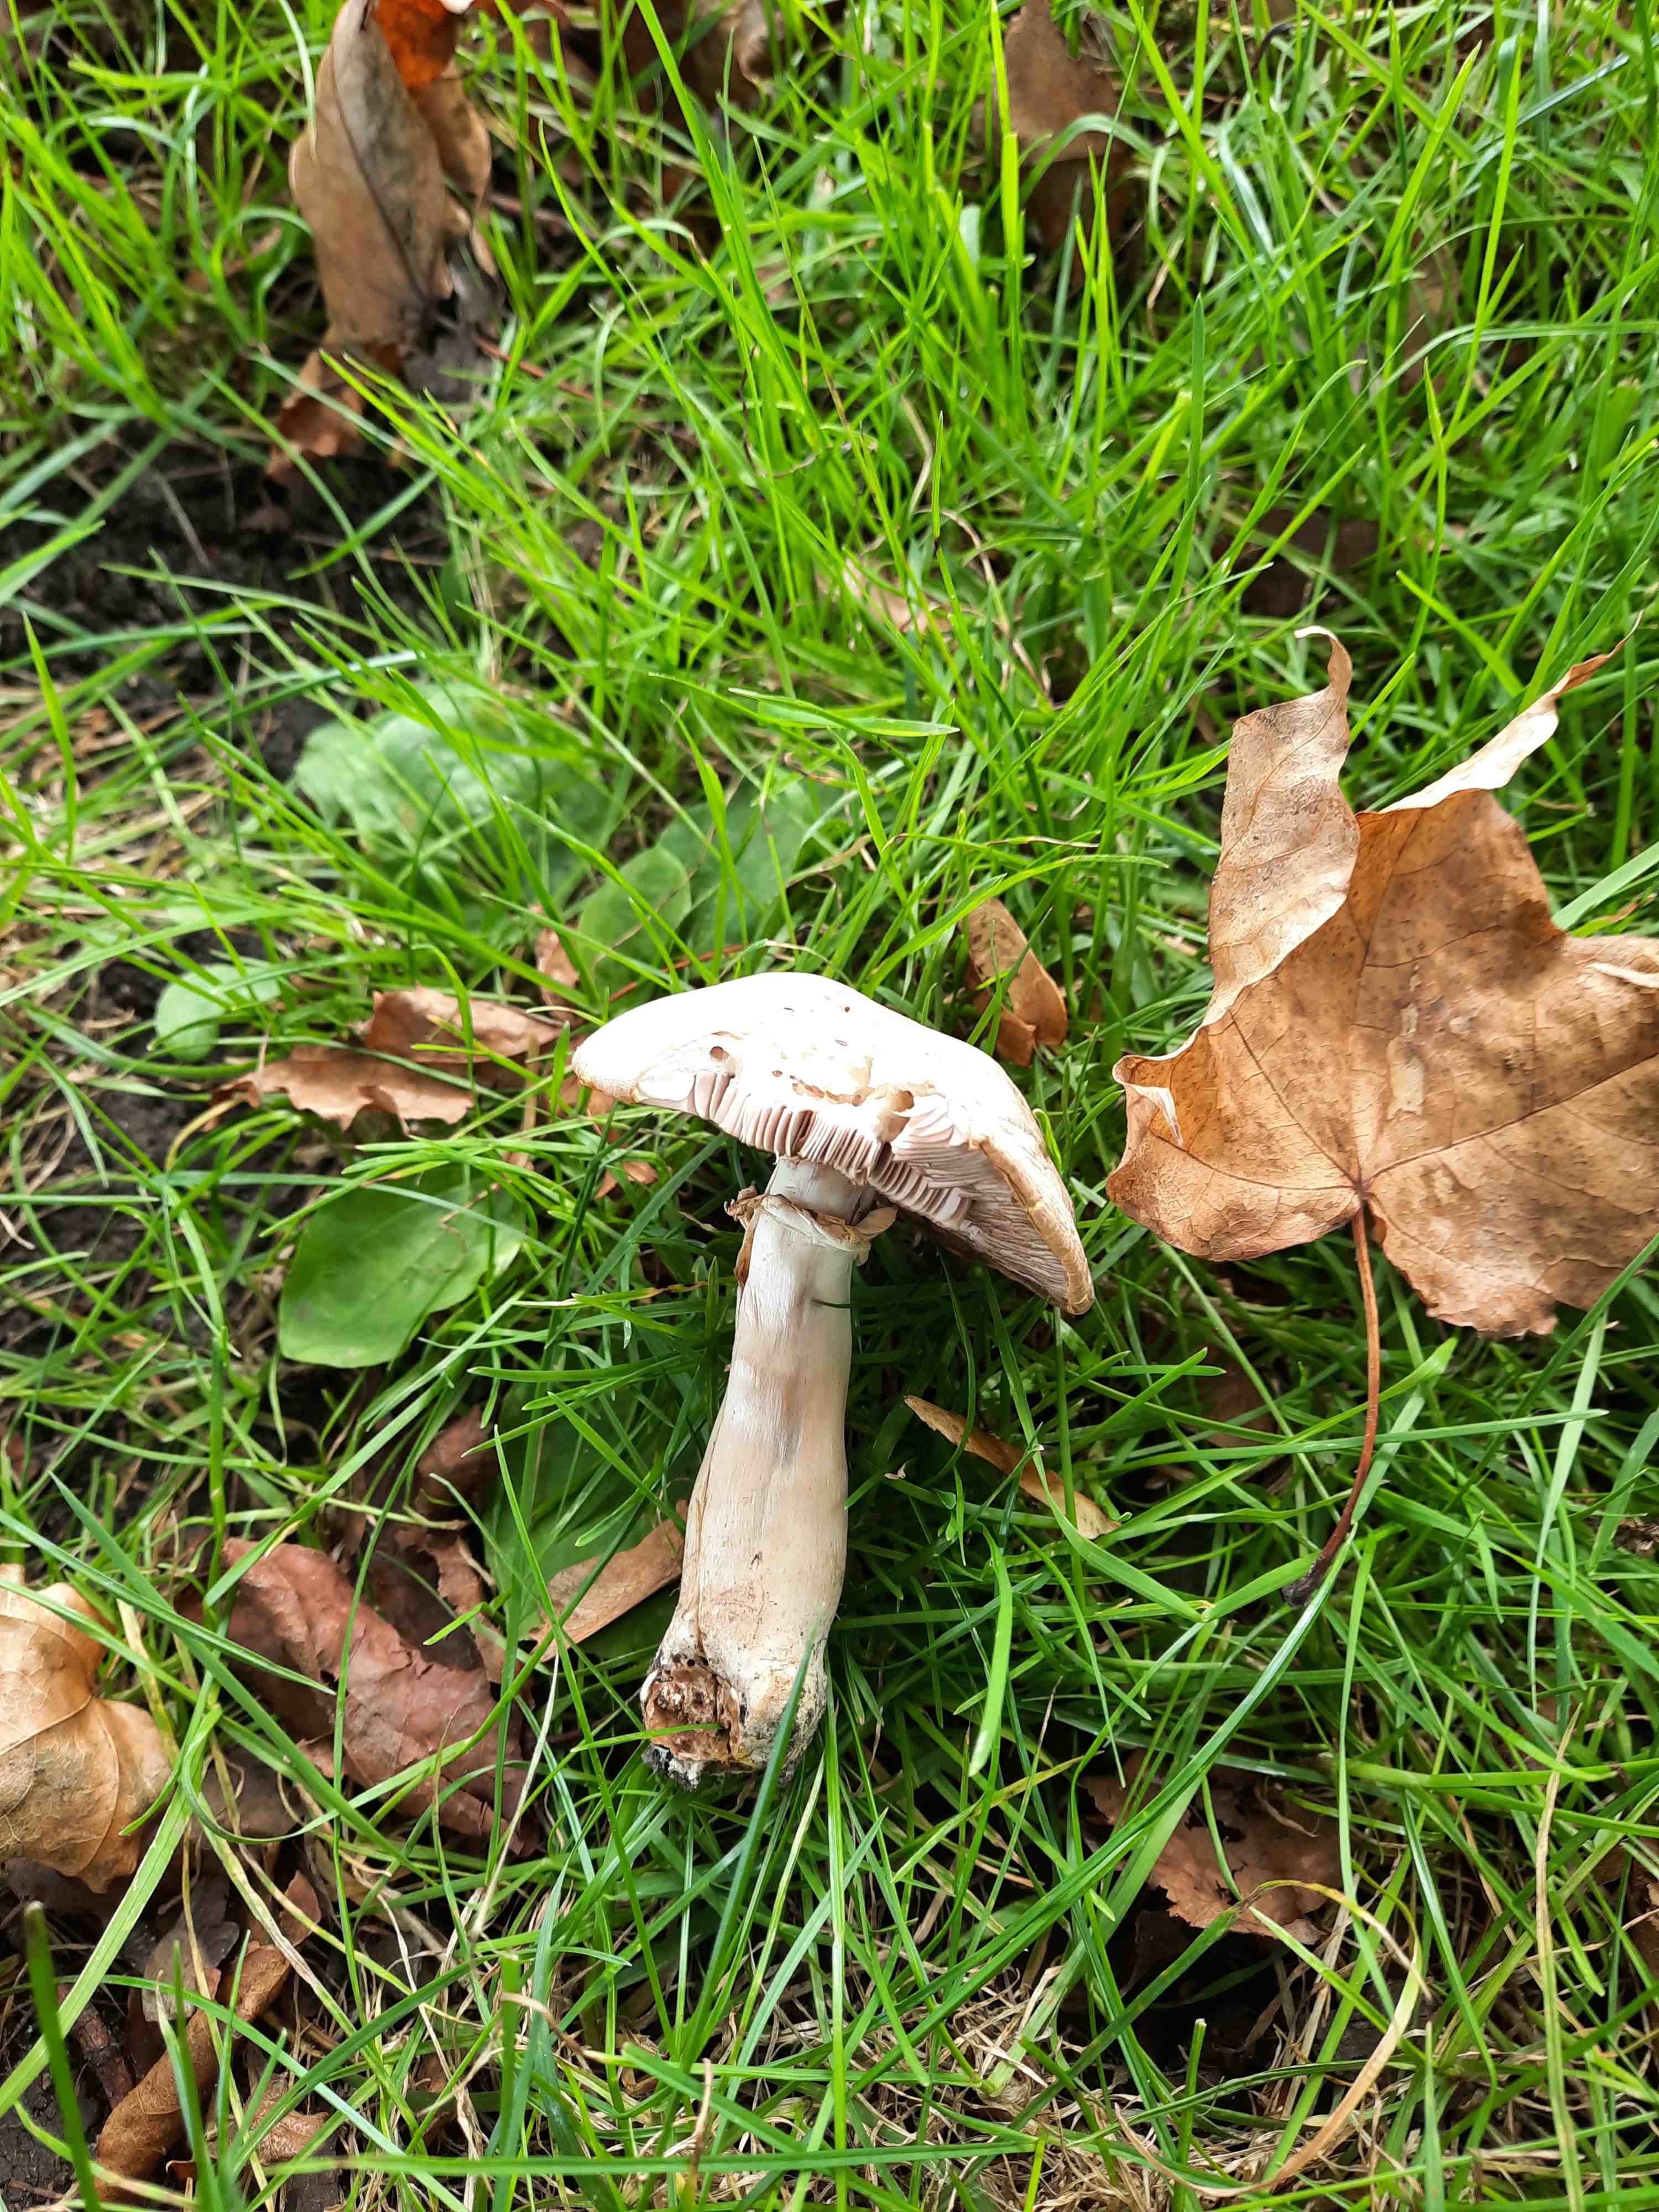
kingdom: Fungi
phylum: Basidiomycota
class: Agaricomycetes
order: Agaricales
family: Agaricaceae
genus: Agaricus
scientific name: Agaricus xanthodermus
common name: karbol-champignon
